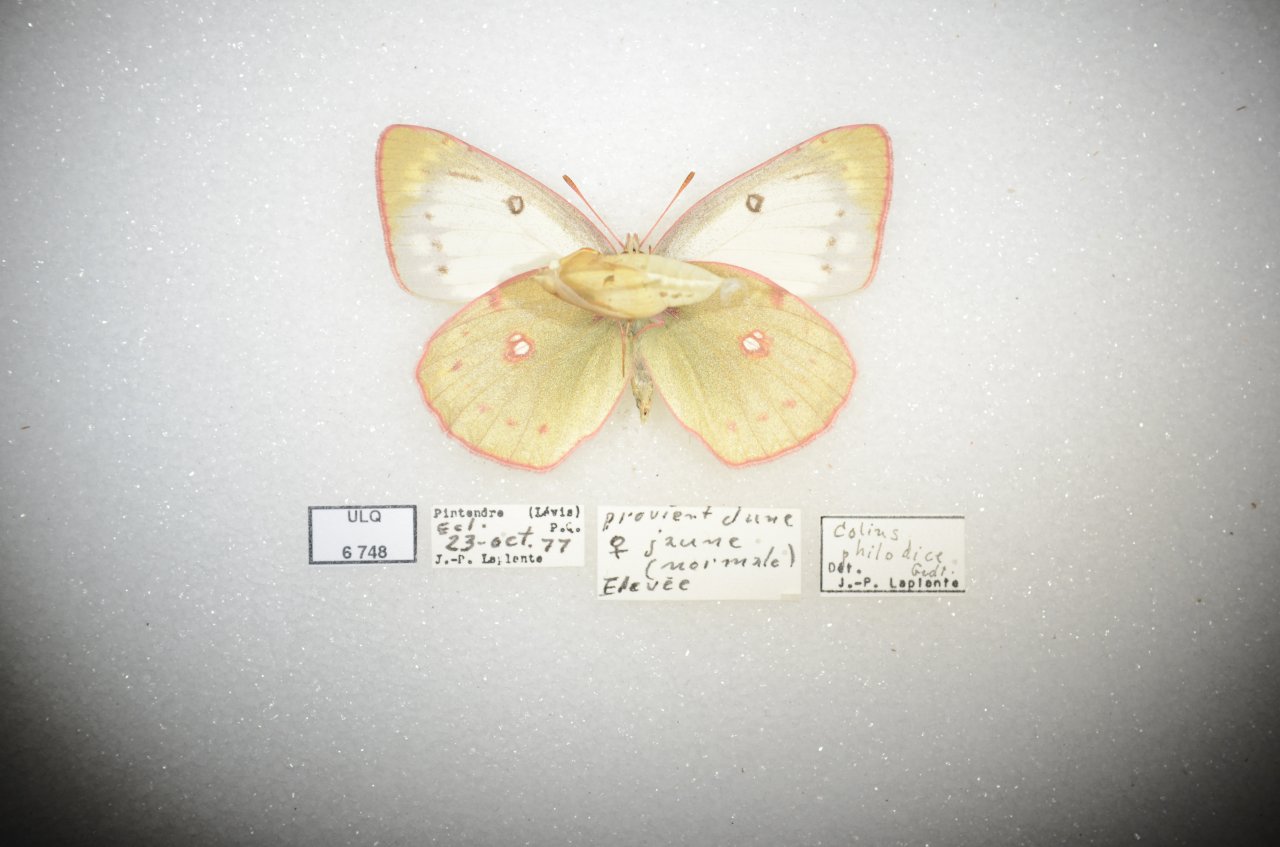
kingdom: Animalia
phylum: Arthropoda
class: Insecta
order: Lepidoptera
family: Pieridae
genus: Colias
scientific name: Colias philodice
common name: Clouded Sulphur
